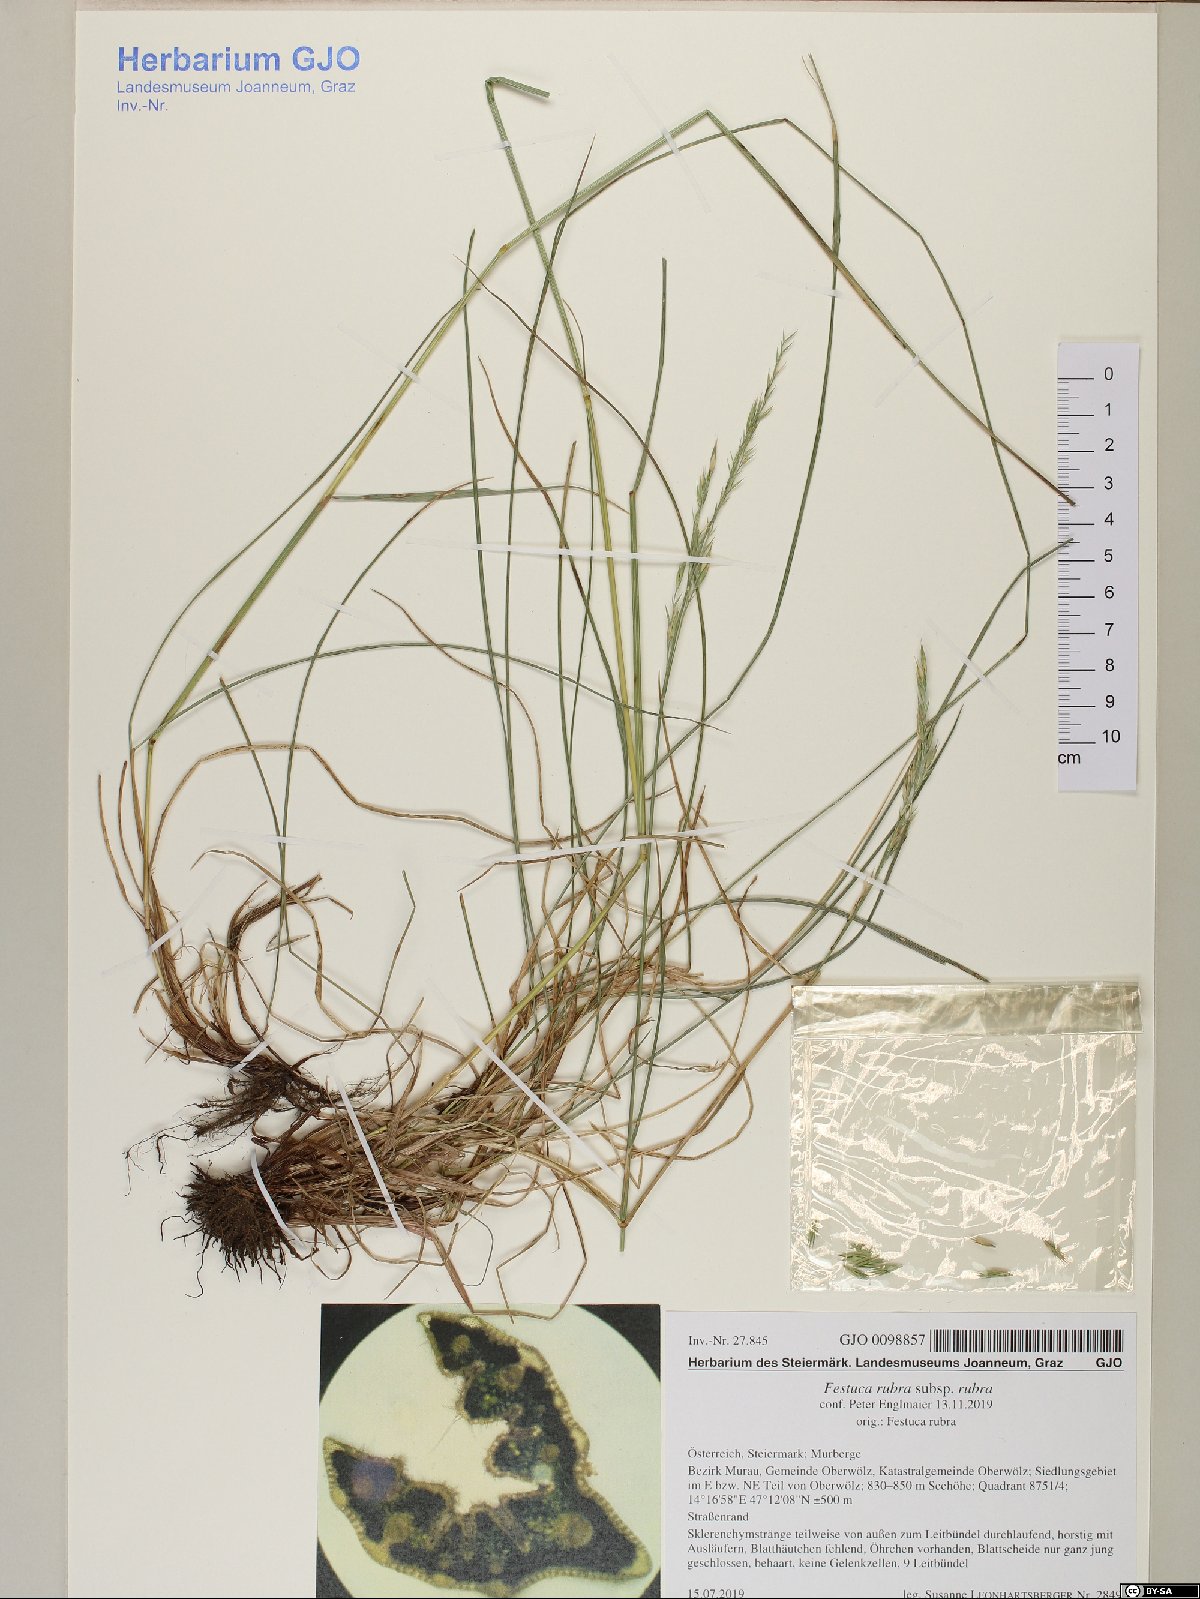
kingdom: Plantae
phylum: Tracheophyta
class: Liliopsida
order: Poales
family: Poaceae
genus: Festuca
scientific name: Festuca rubra
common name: Red fescue
